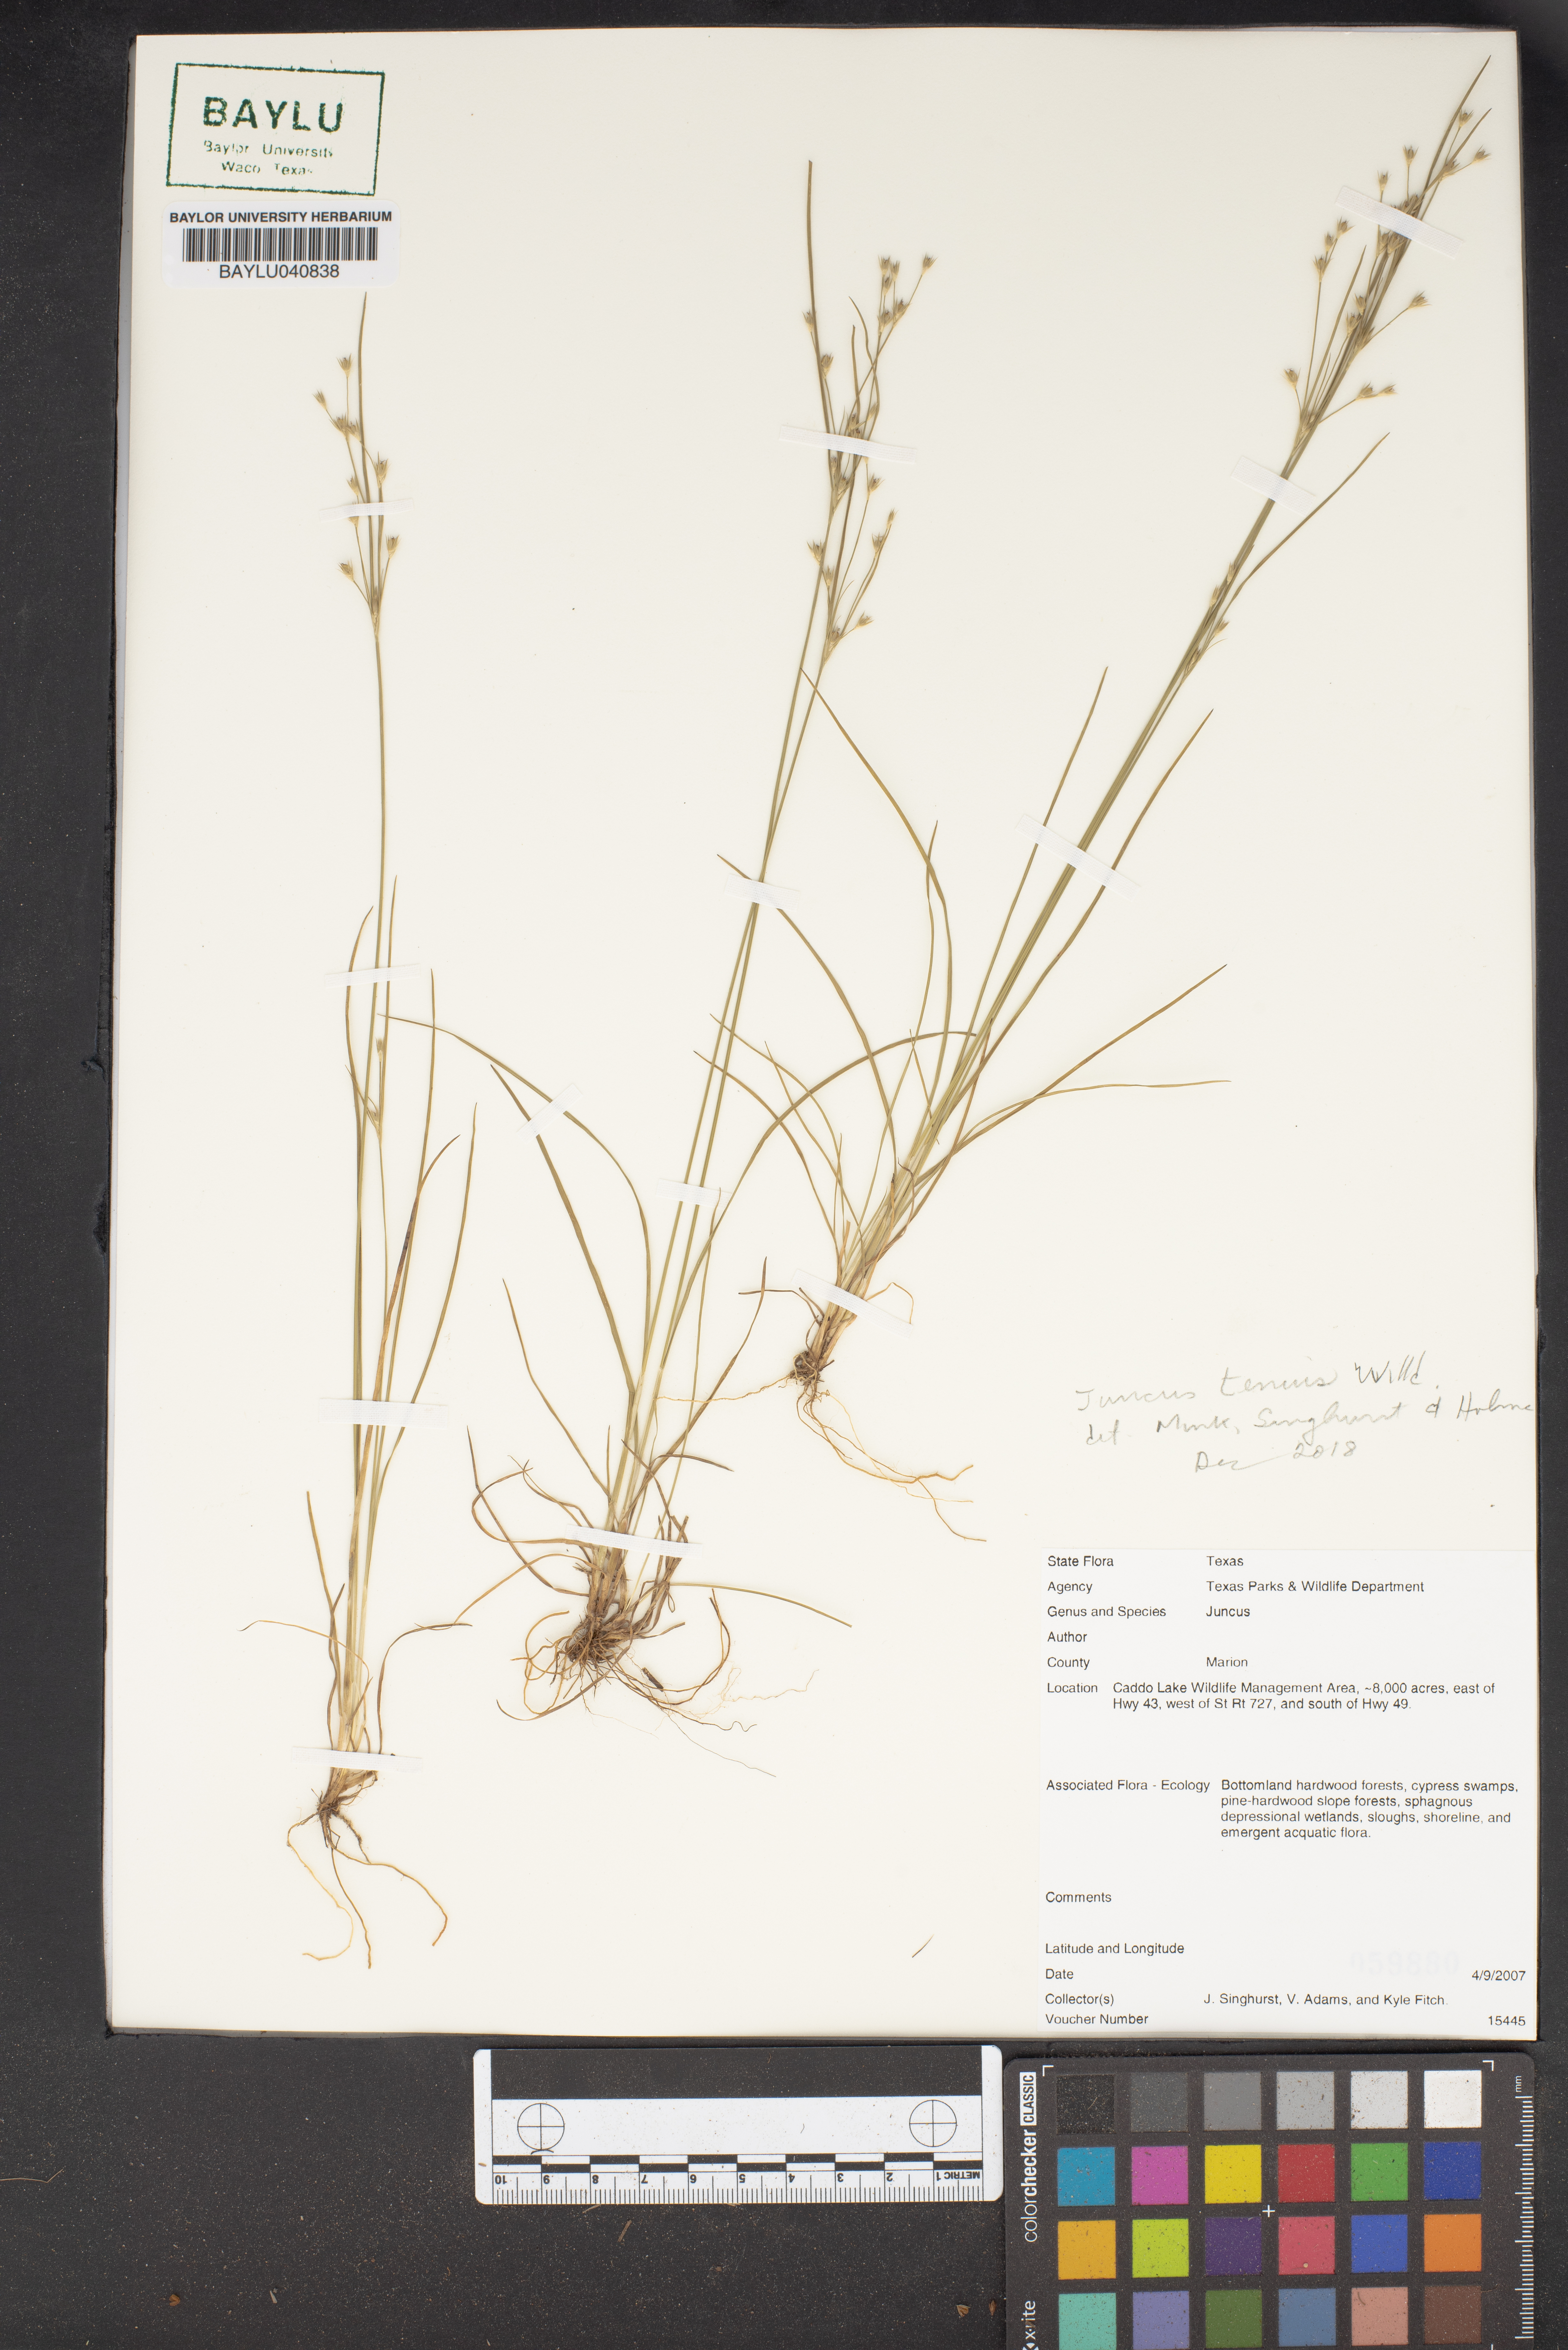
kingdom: Plantae
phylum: Tracheophyta
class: Liliopsida
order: Poales
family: Juncaceae
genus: Juncus
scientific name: Juncus tenuis
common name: Slender rush
